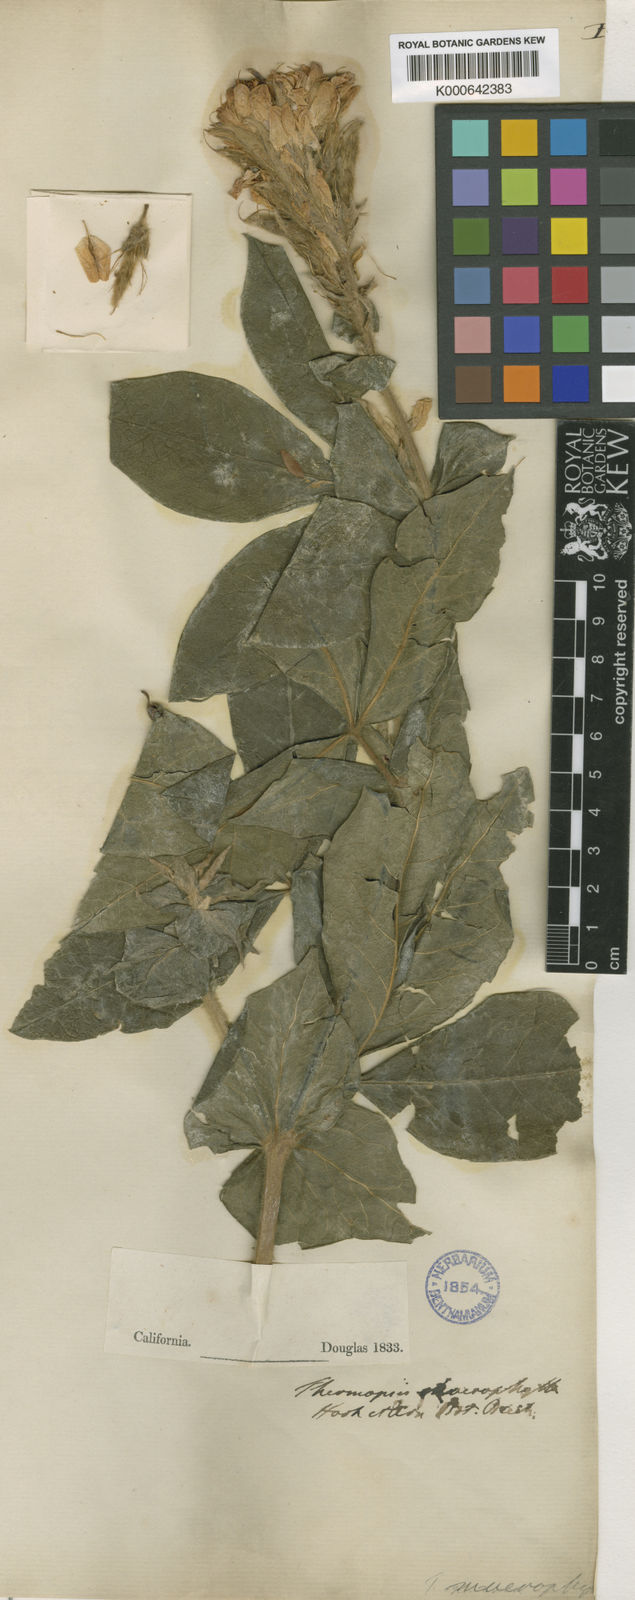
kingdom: Plantae
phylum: Tracheophyta
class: Magnoliopsida
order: Fabales
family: Fabaceae
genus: Thermopsis
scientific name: Thermopsis macrophylla
